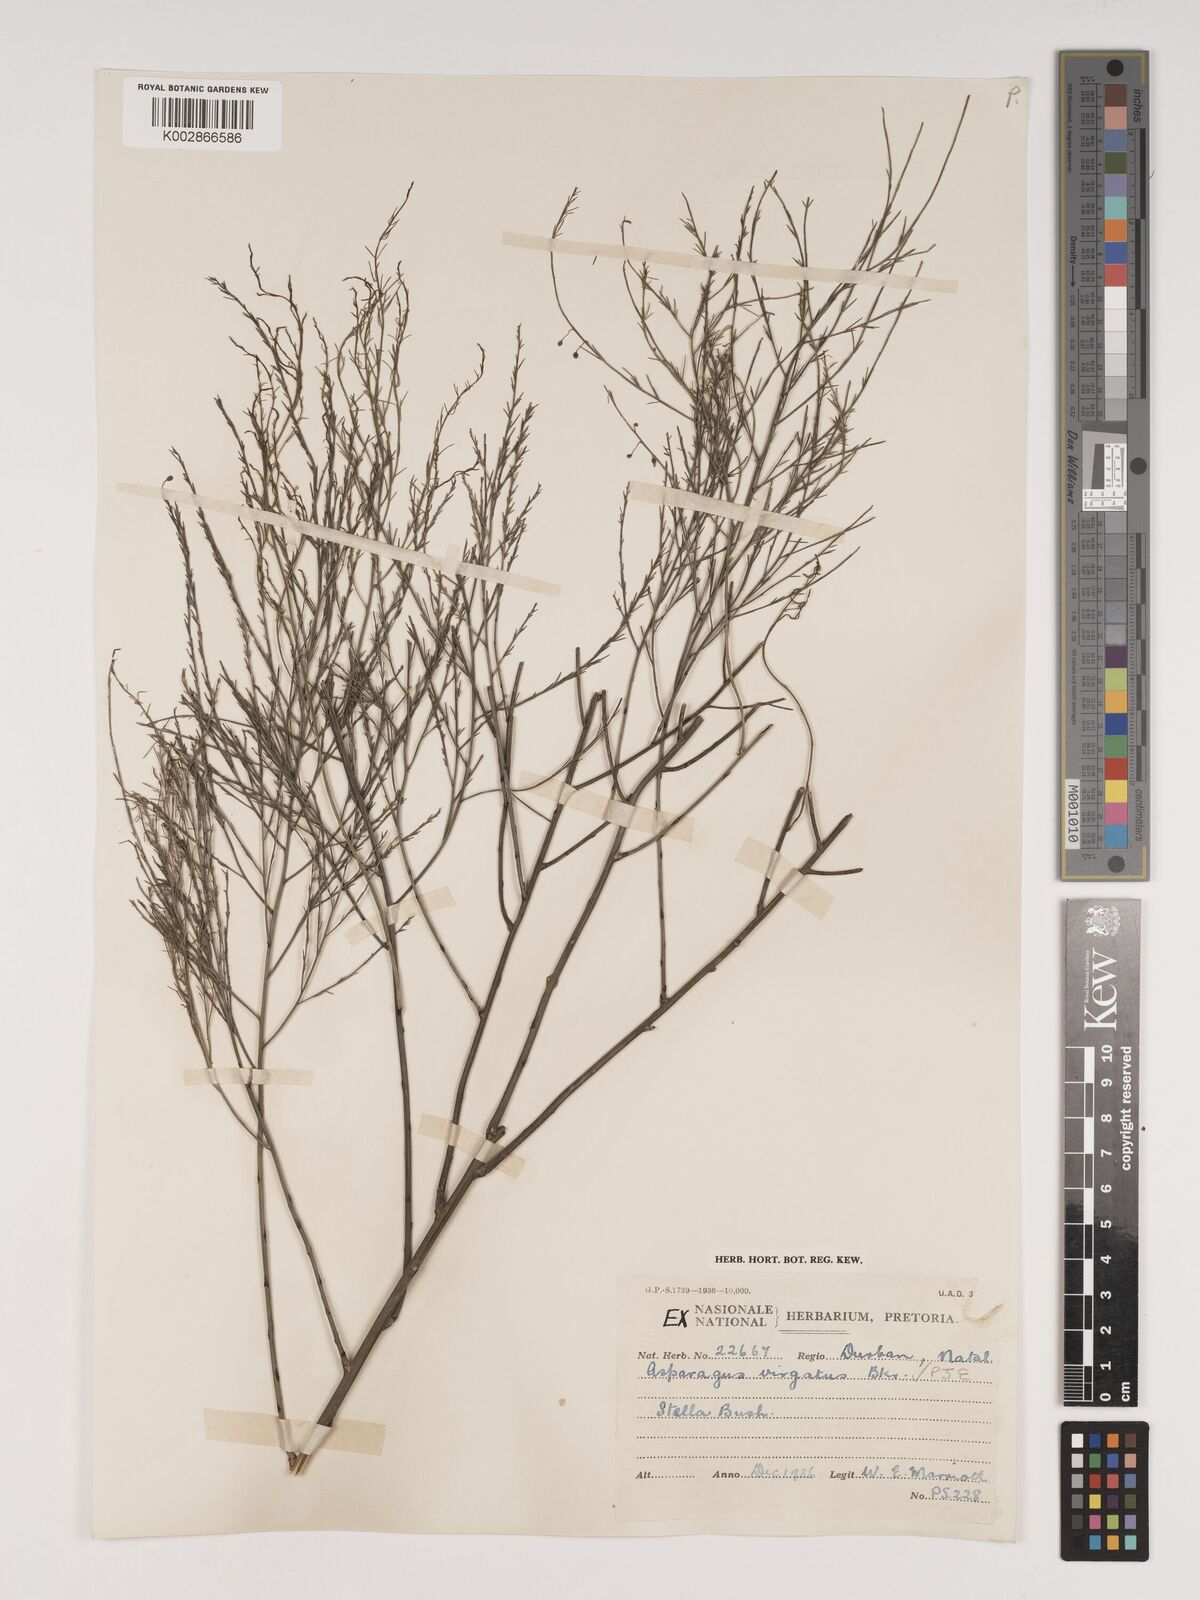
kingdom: Plantae
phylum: Tracheophyta
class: Liliopsida
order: Asparagales
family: Asparagaceae
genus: Asparagus
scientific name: Asparagus virgatus
